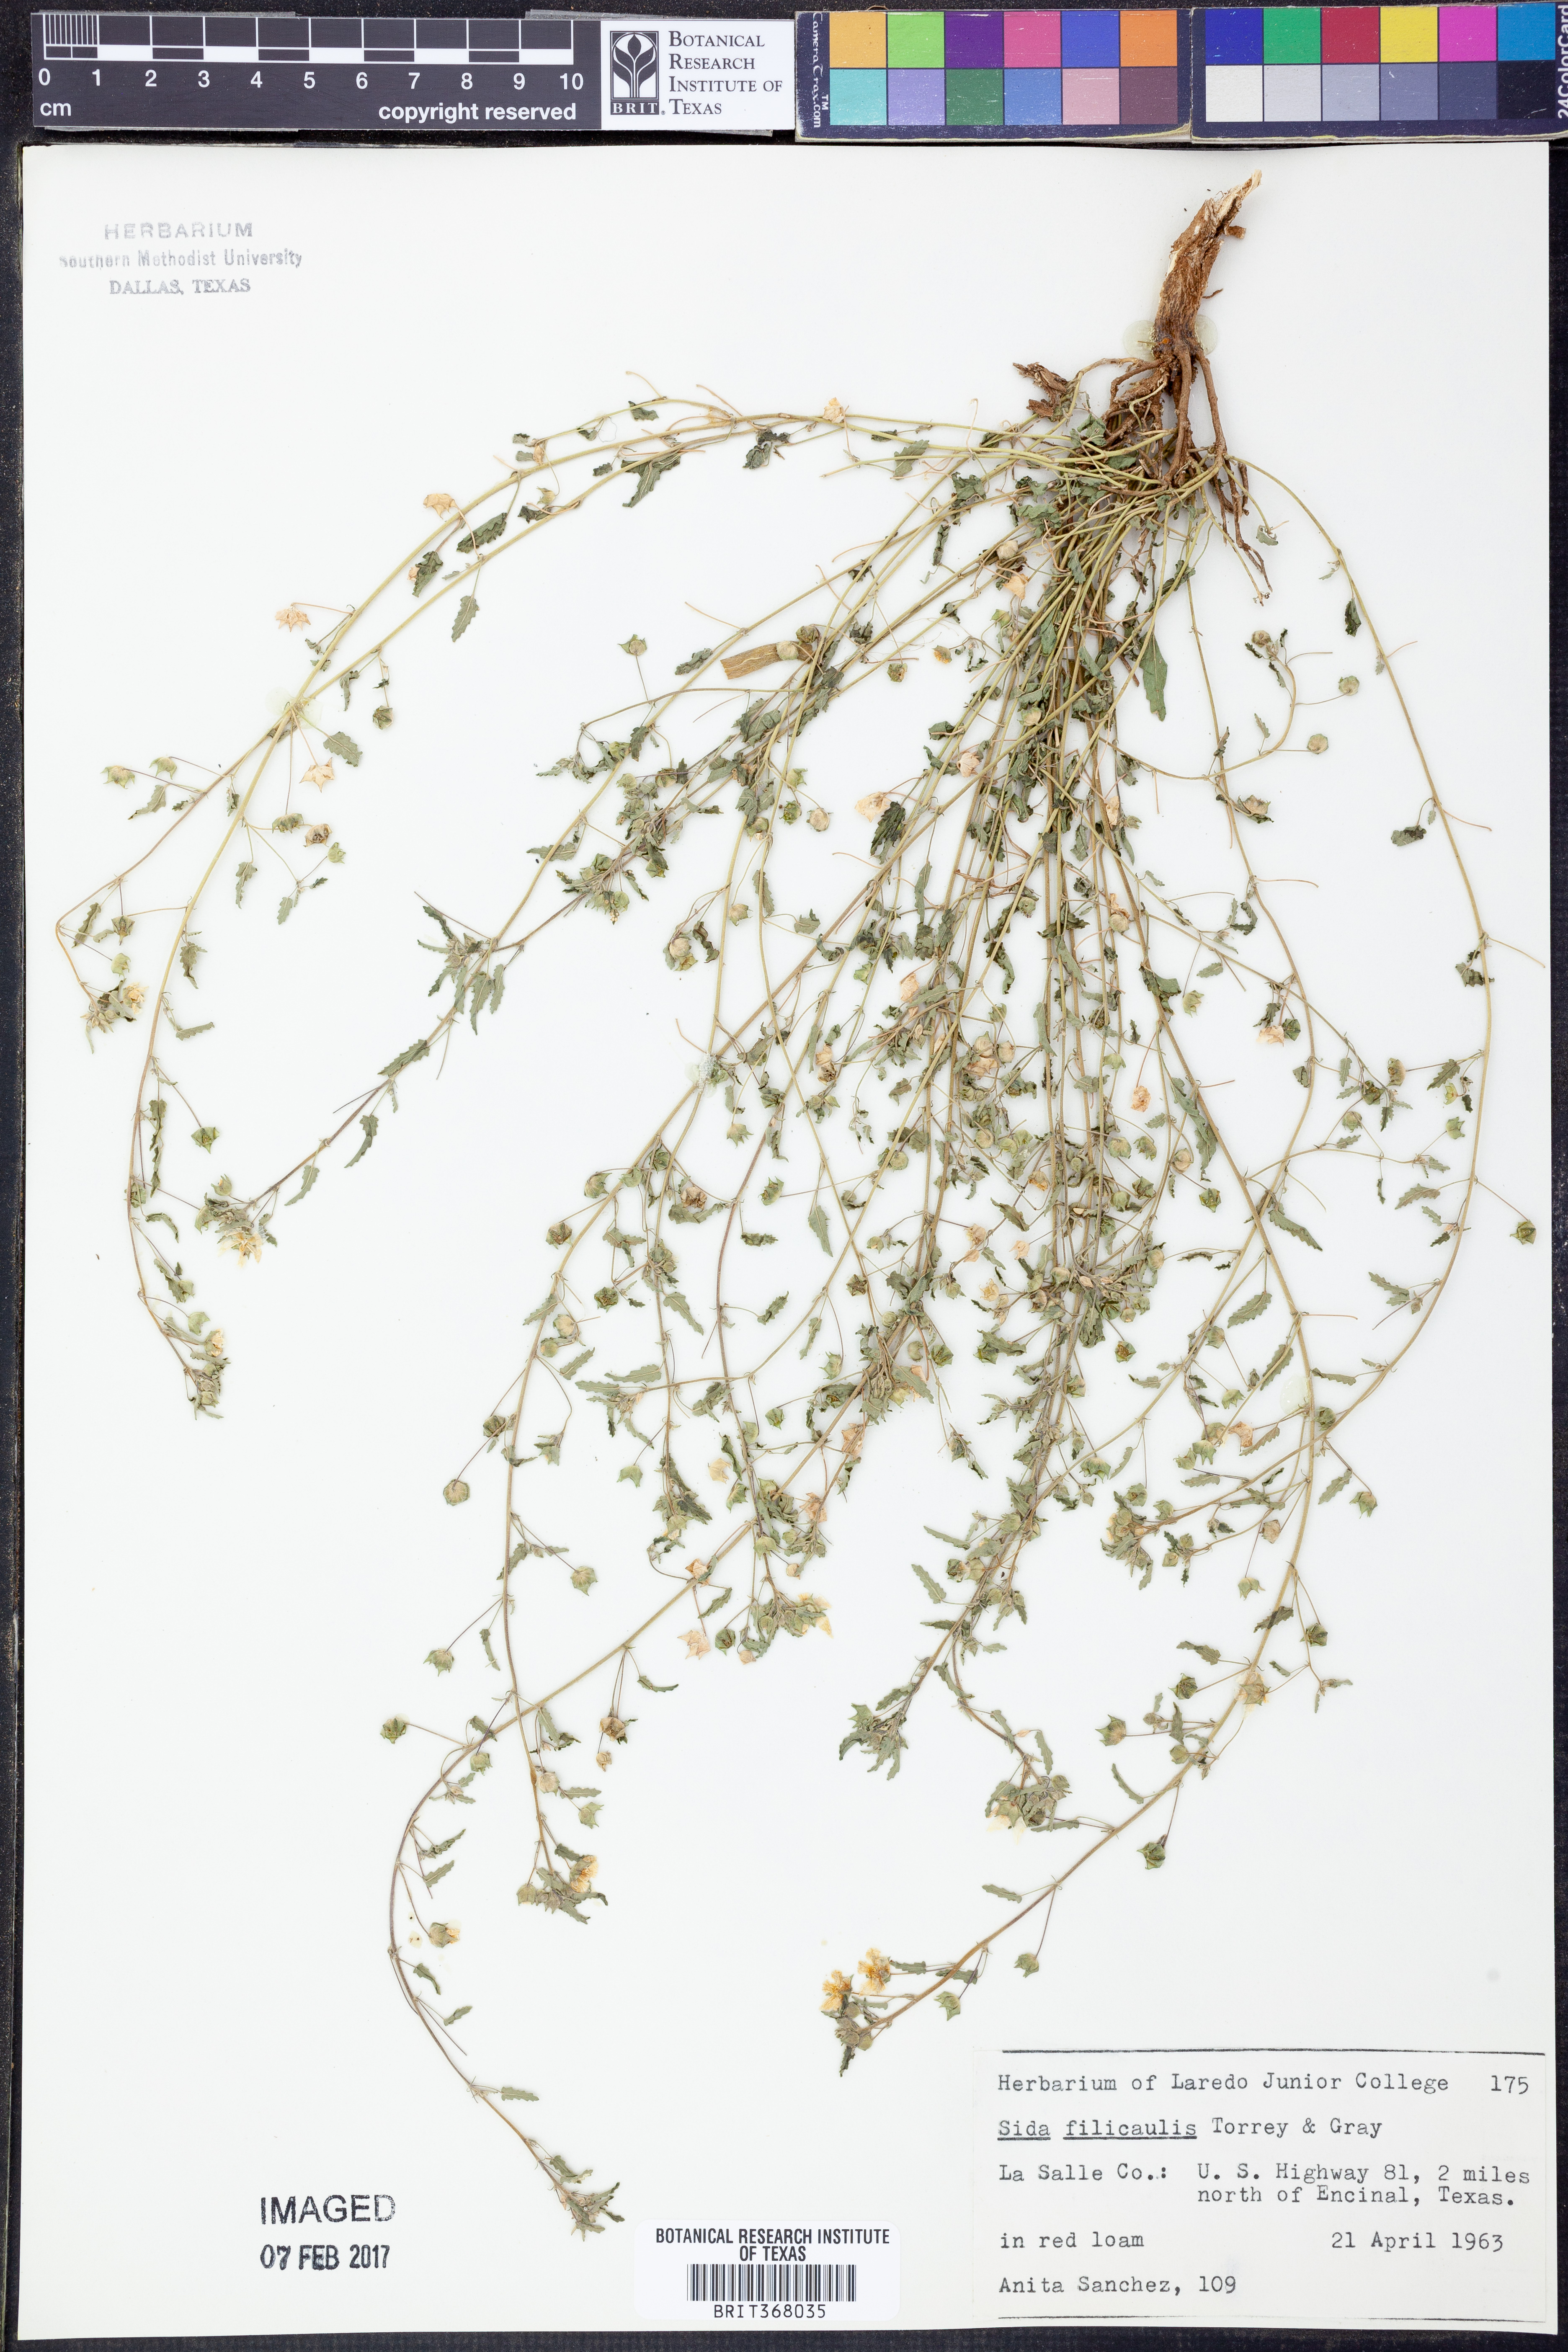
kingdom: Plantae
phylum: Tracheophyta
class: Magnoliopsida
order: Malvales
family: Malvaceae
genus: Sida
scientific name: Sida abutilifolia
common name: Spreading fanpetals
